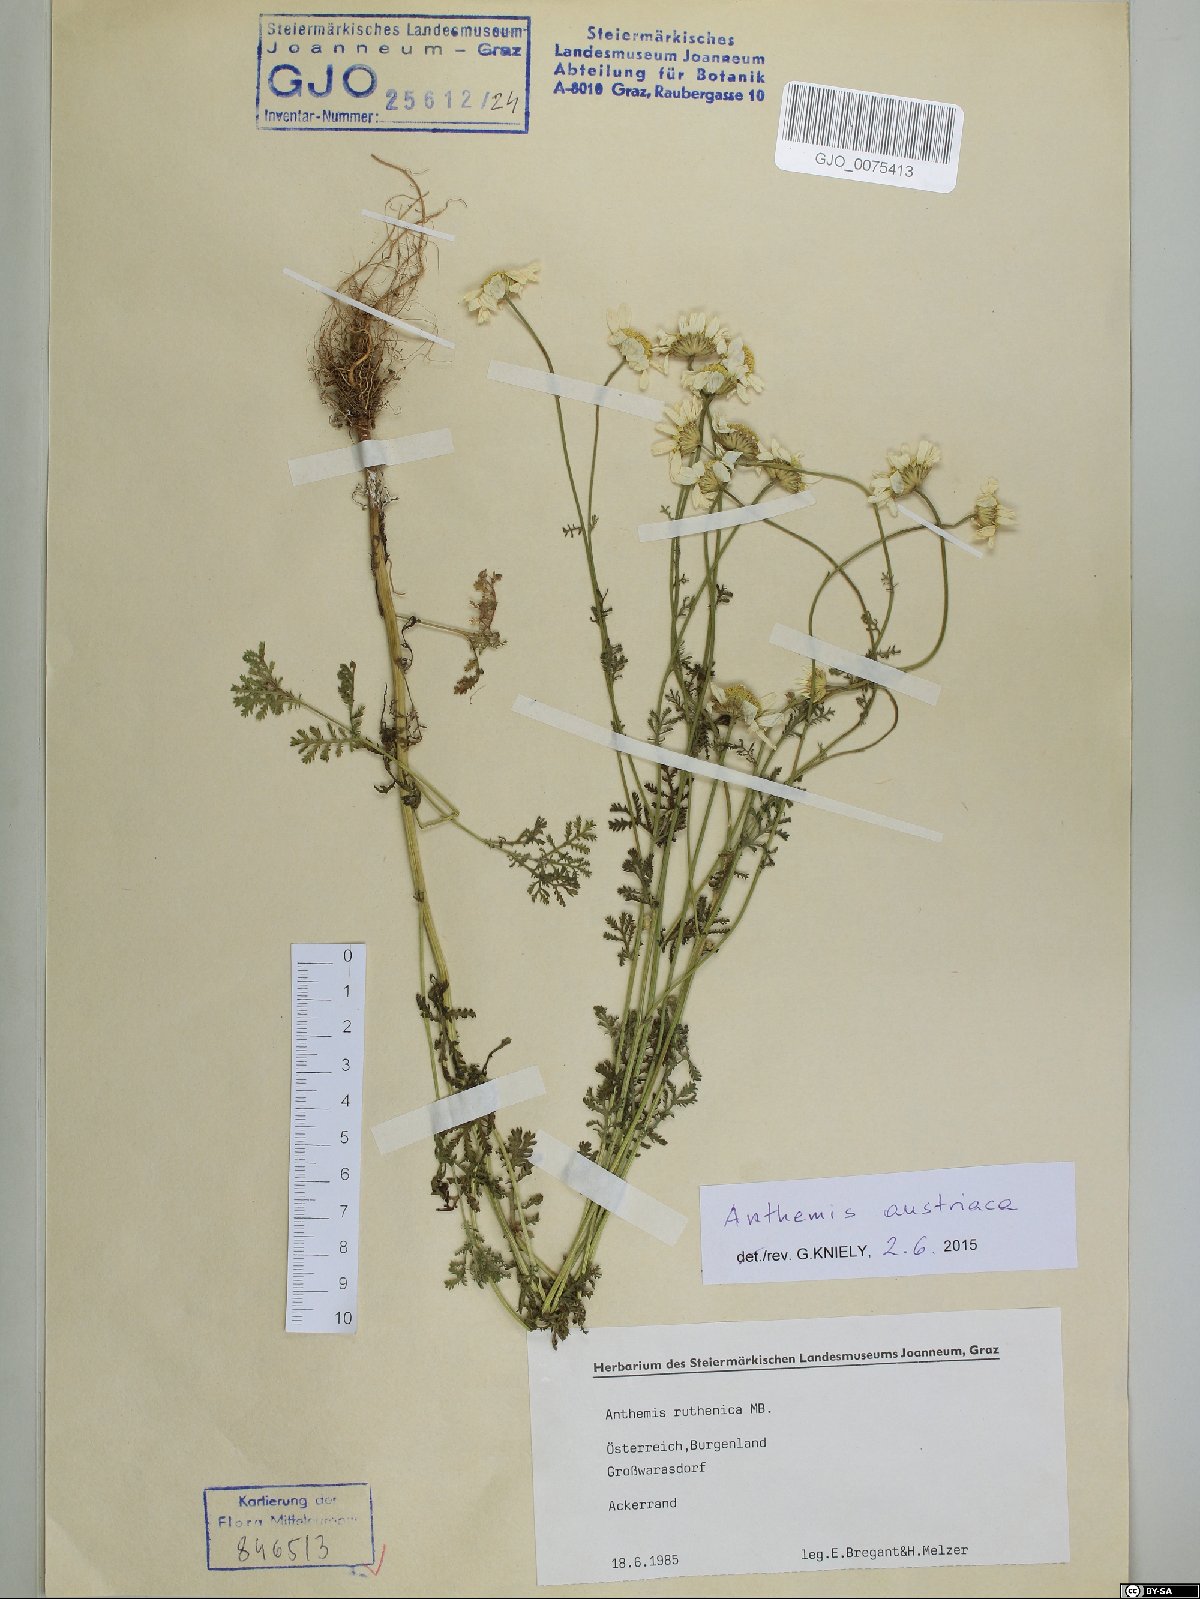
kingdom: Plantae
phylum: Tracheophyta
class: Magnoliopsida
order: Asterales
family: Asteraceae
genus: Cota
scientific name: Cota austriaca
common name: Austrian chamomile
